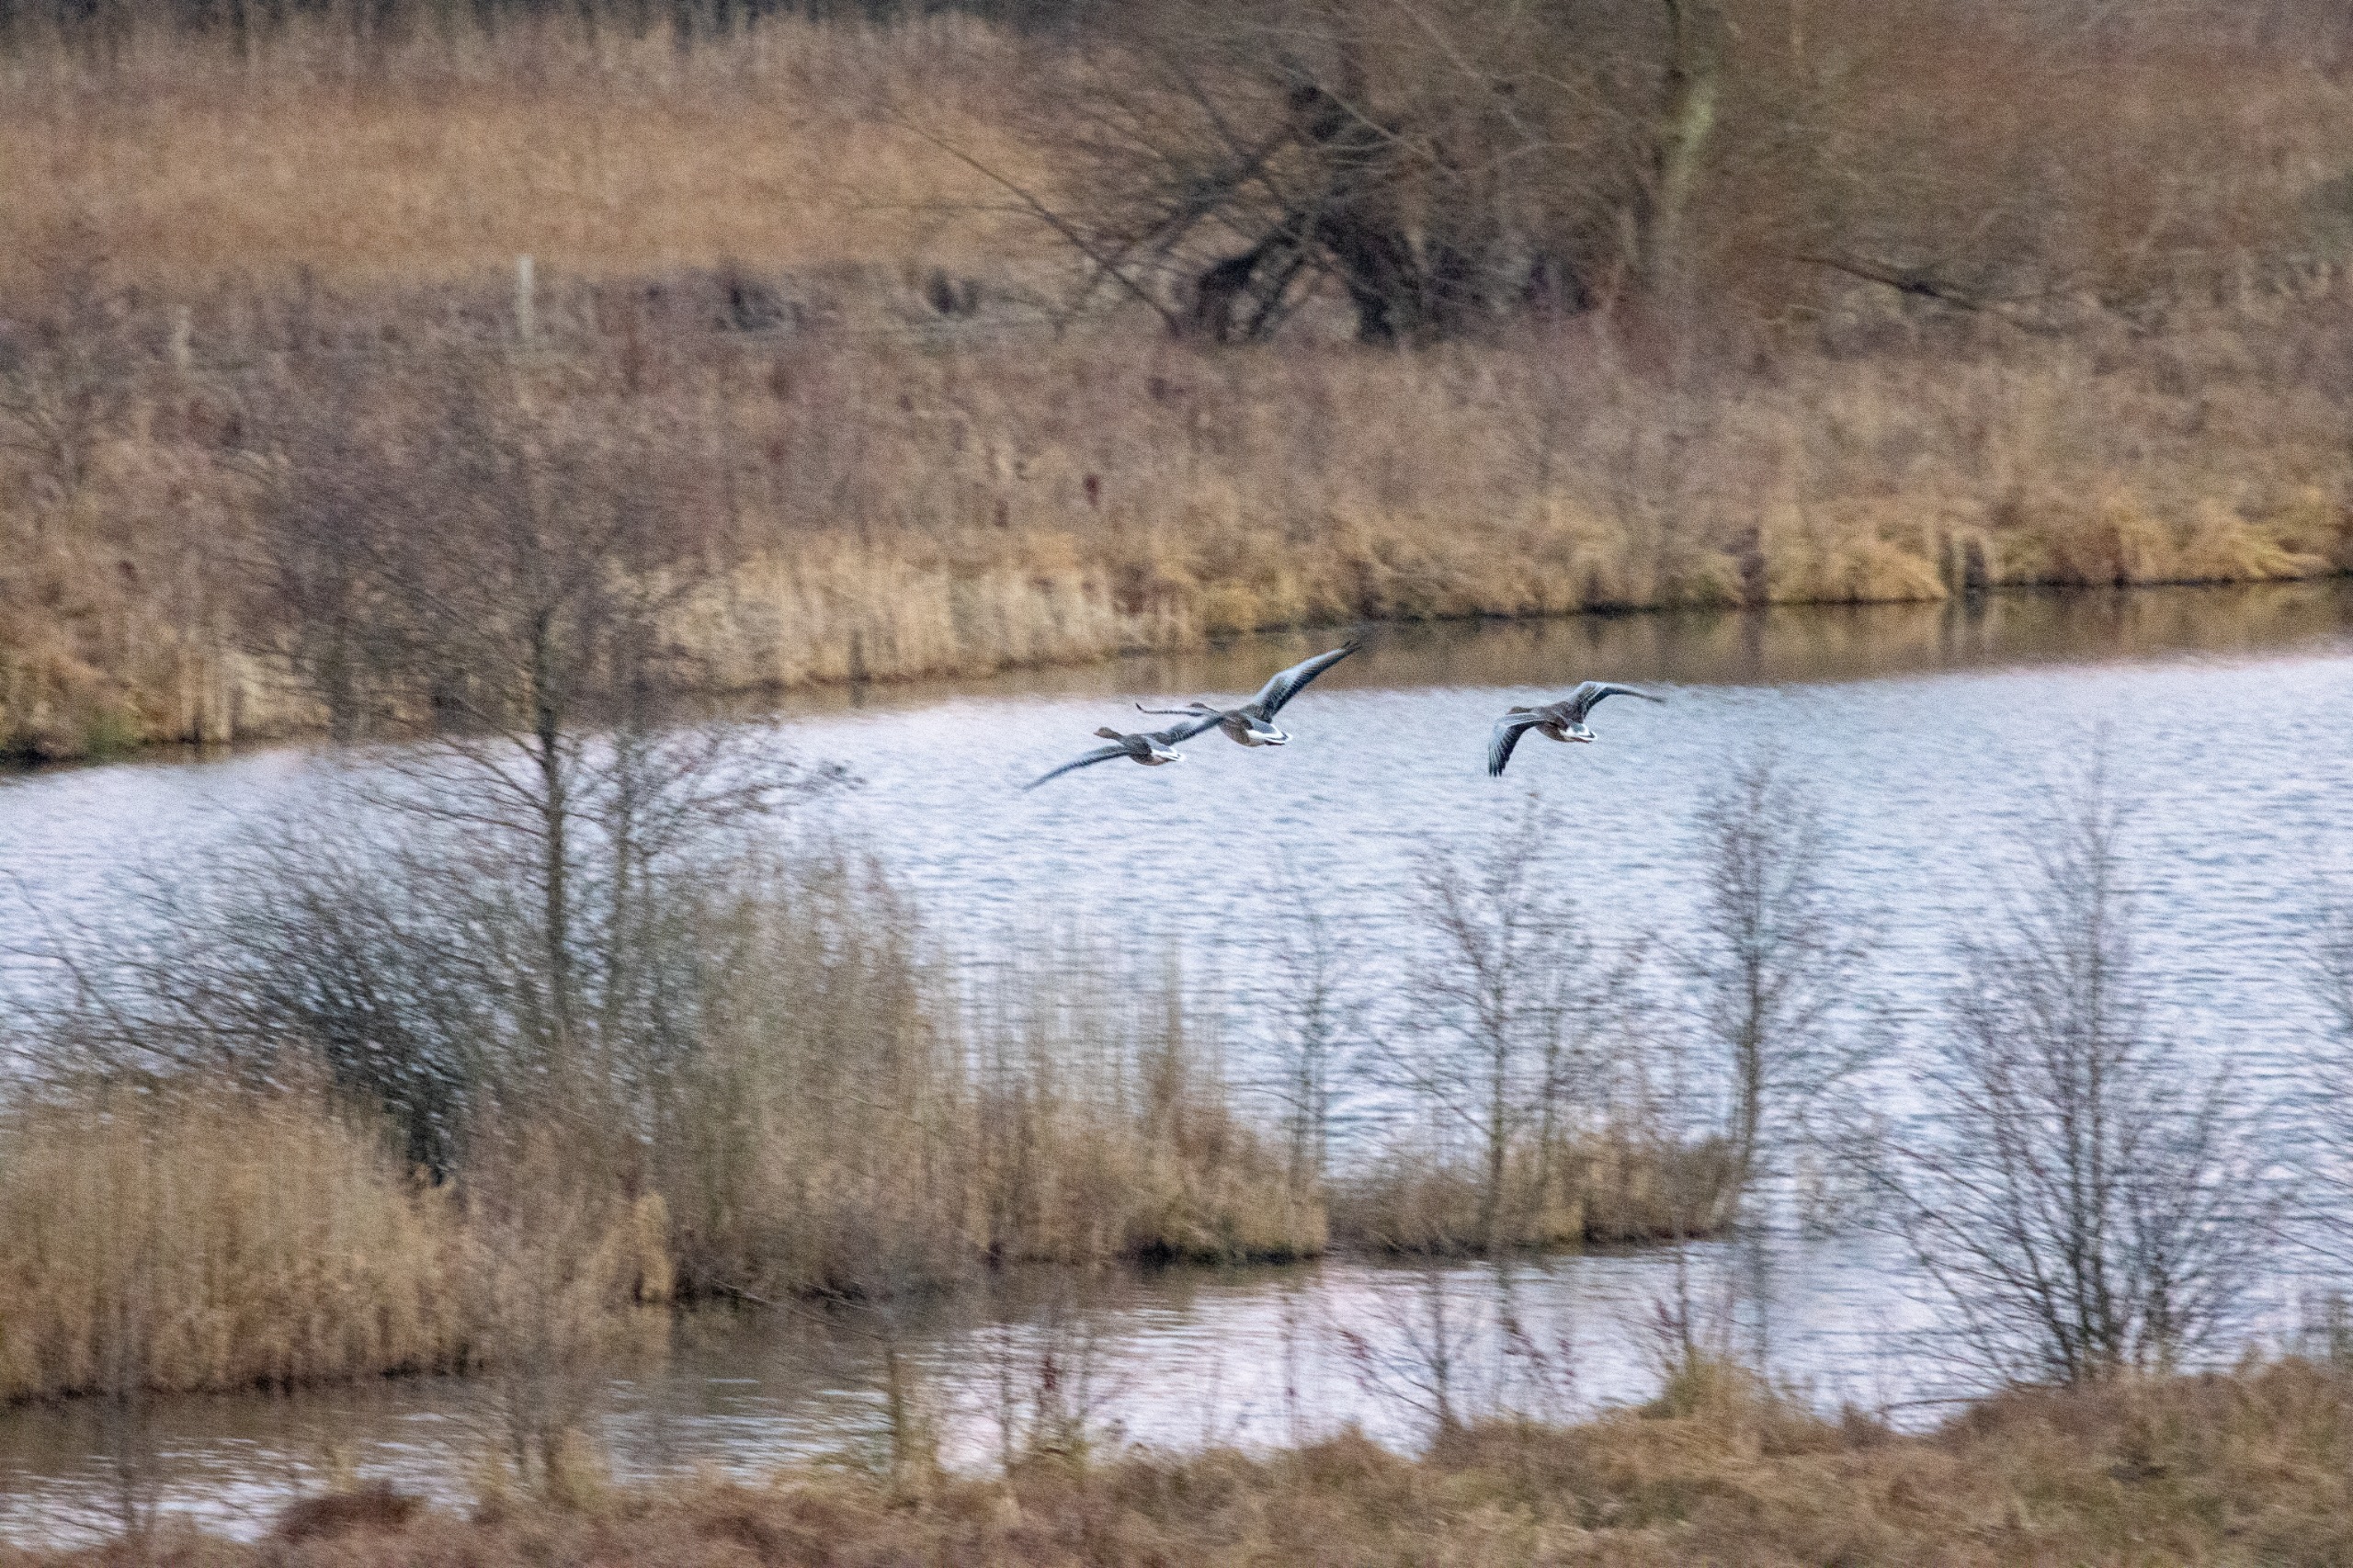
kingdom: Animalia
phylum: Chordata
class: Aves
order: Anseriformes
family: Anatidae
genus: Anser
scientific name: Anser anser
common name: Grågås
